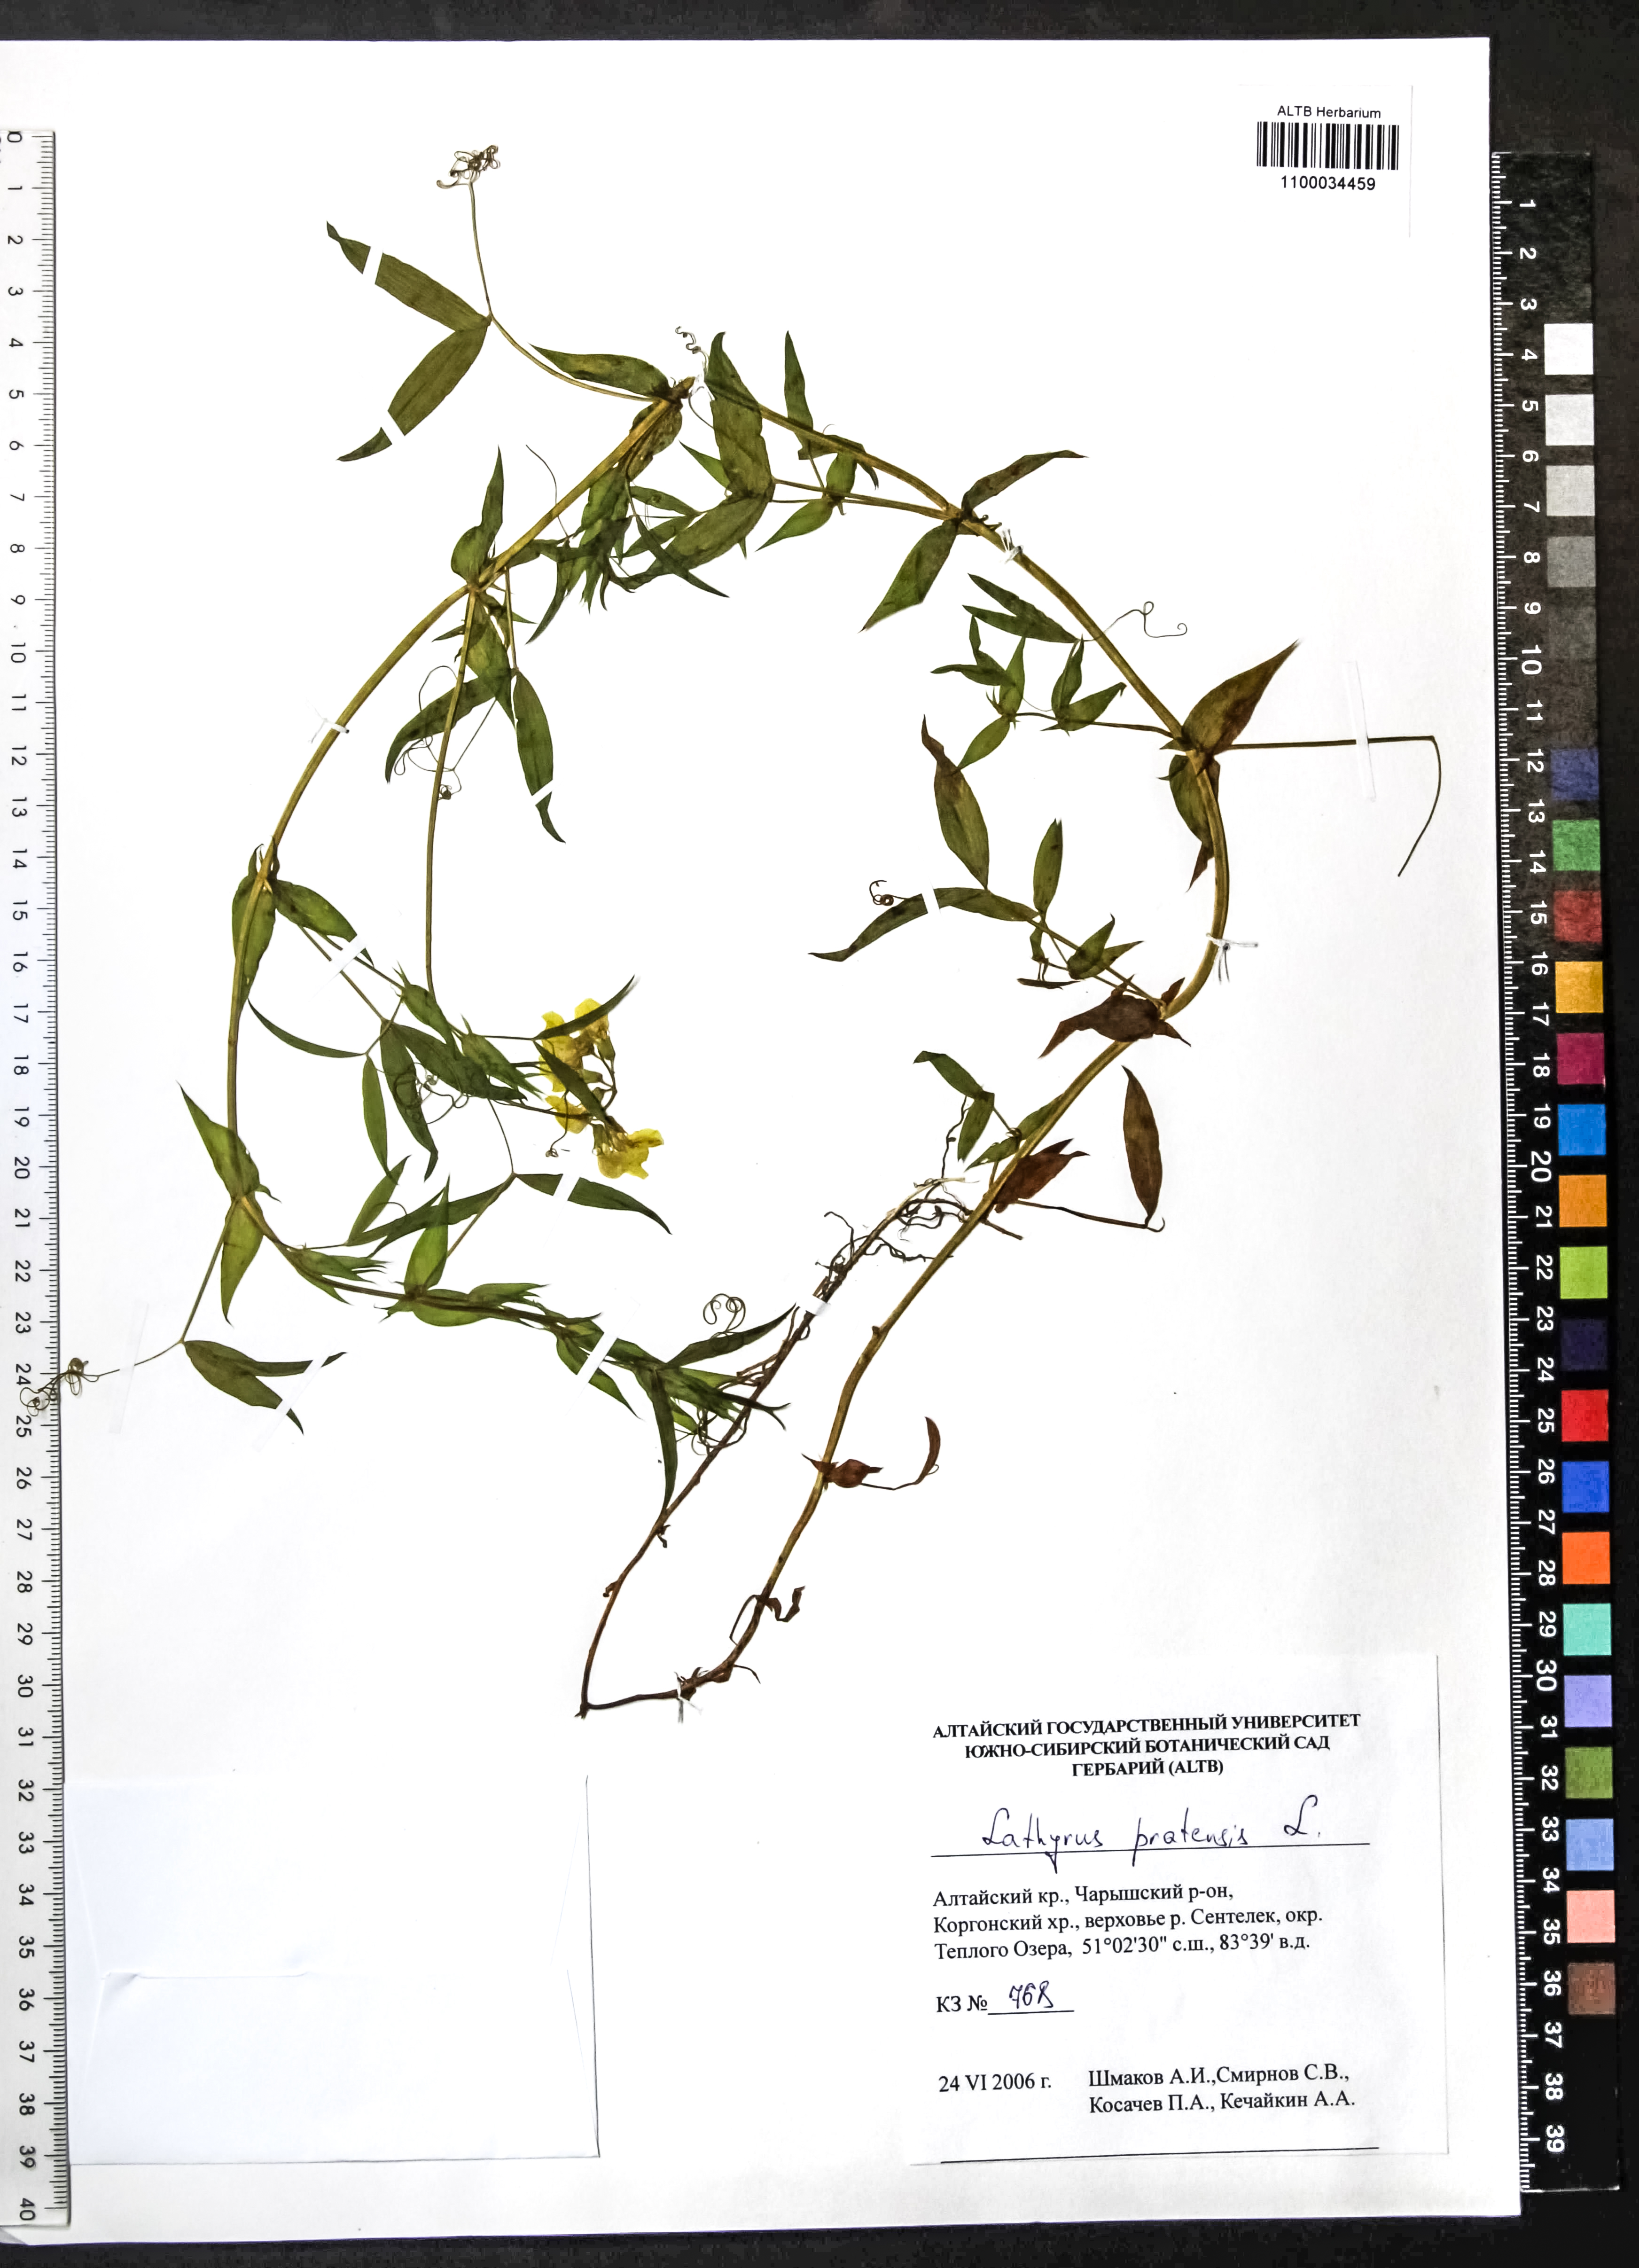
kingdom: Plantae
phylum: Tracheophyta
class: Magnoliopsida
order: Fabales
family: Fabaceae
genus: Lathyrus
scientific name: Lathyrus pratensis
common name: Meadow vetchling
